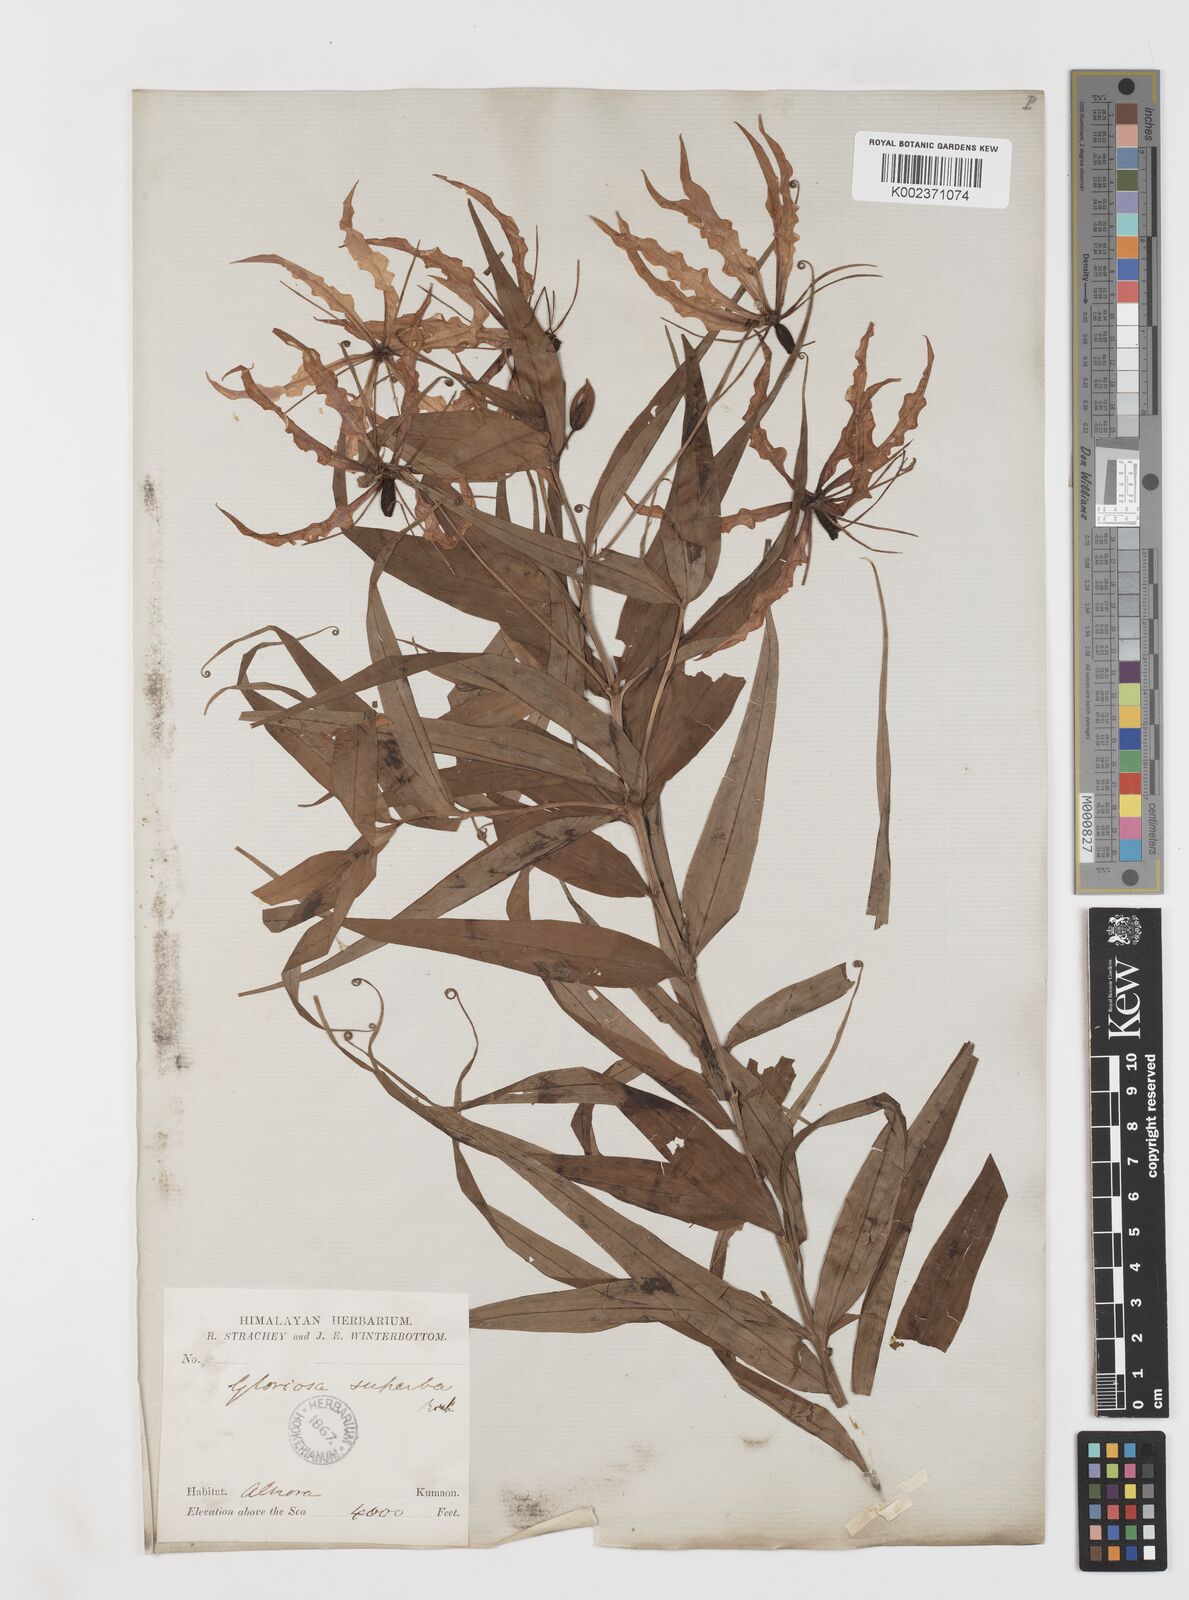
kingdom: Plantae
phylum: Tracheophyta
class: Liliopsida
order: Liliales
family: Colchicaceae
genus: Gloriosa
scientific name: Gloriosa superba
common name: Flame lily
